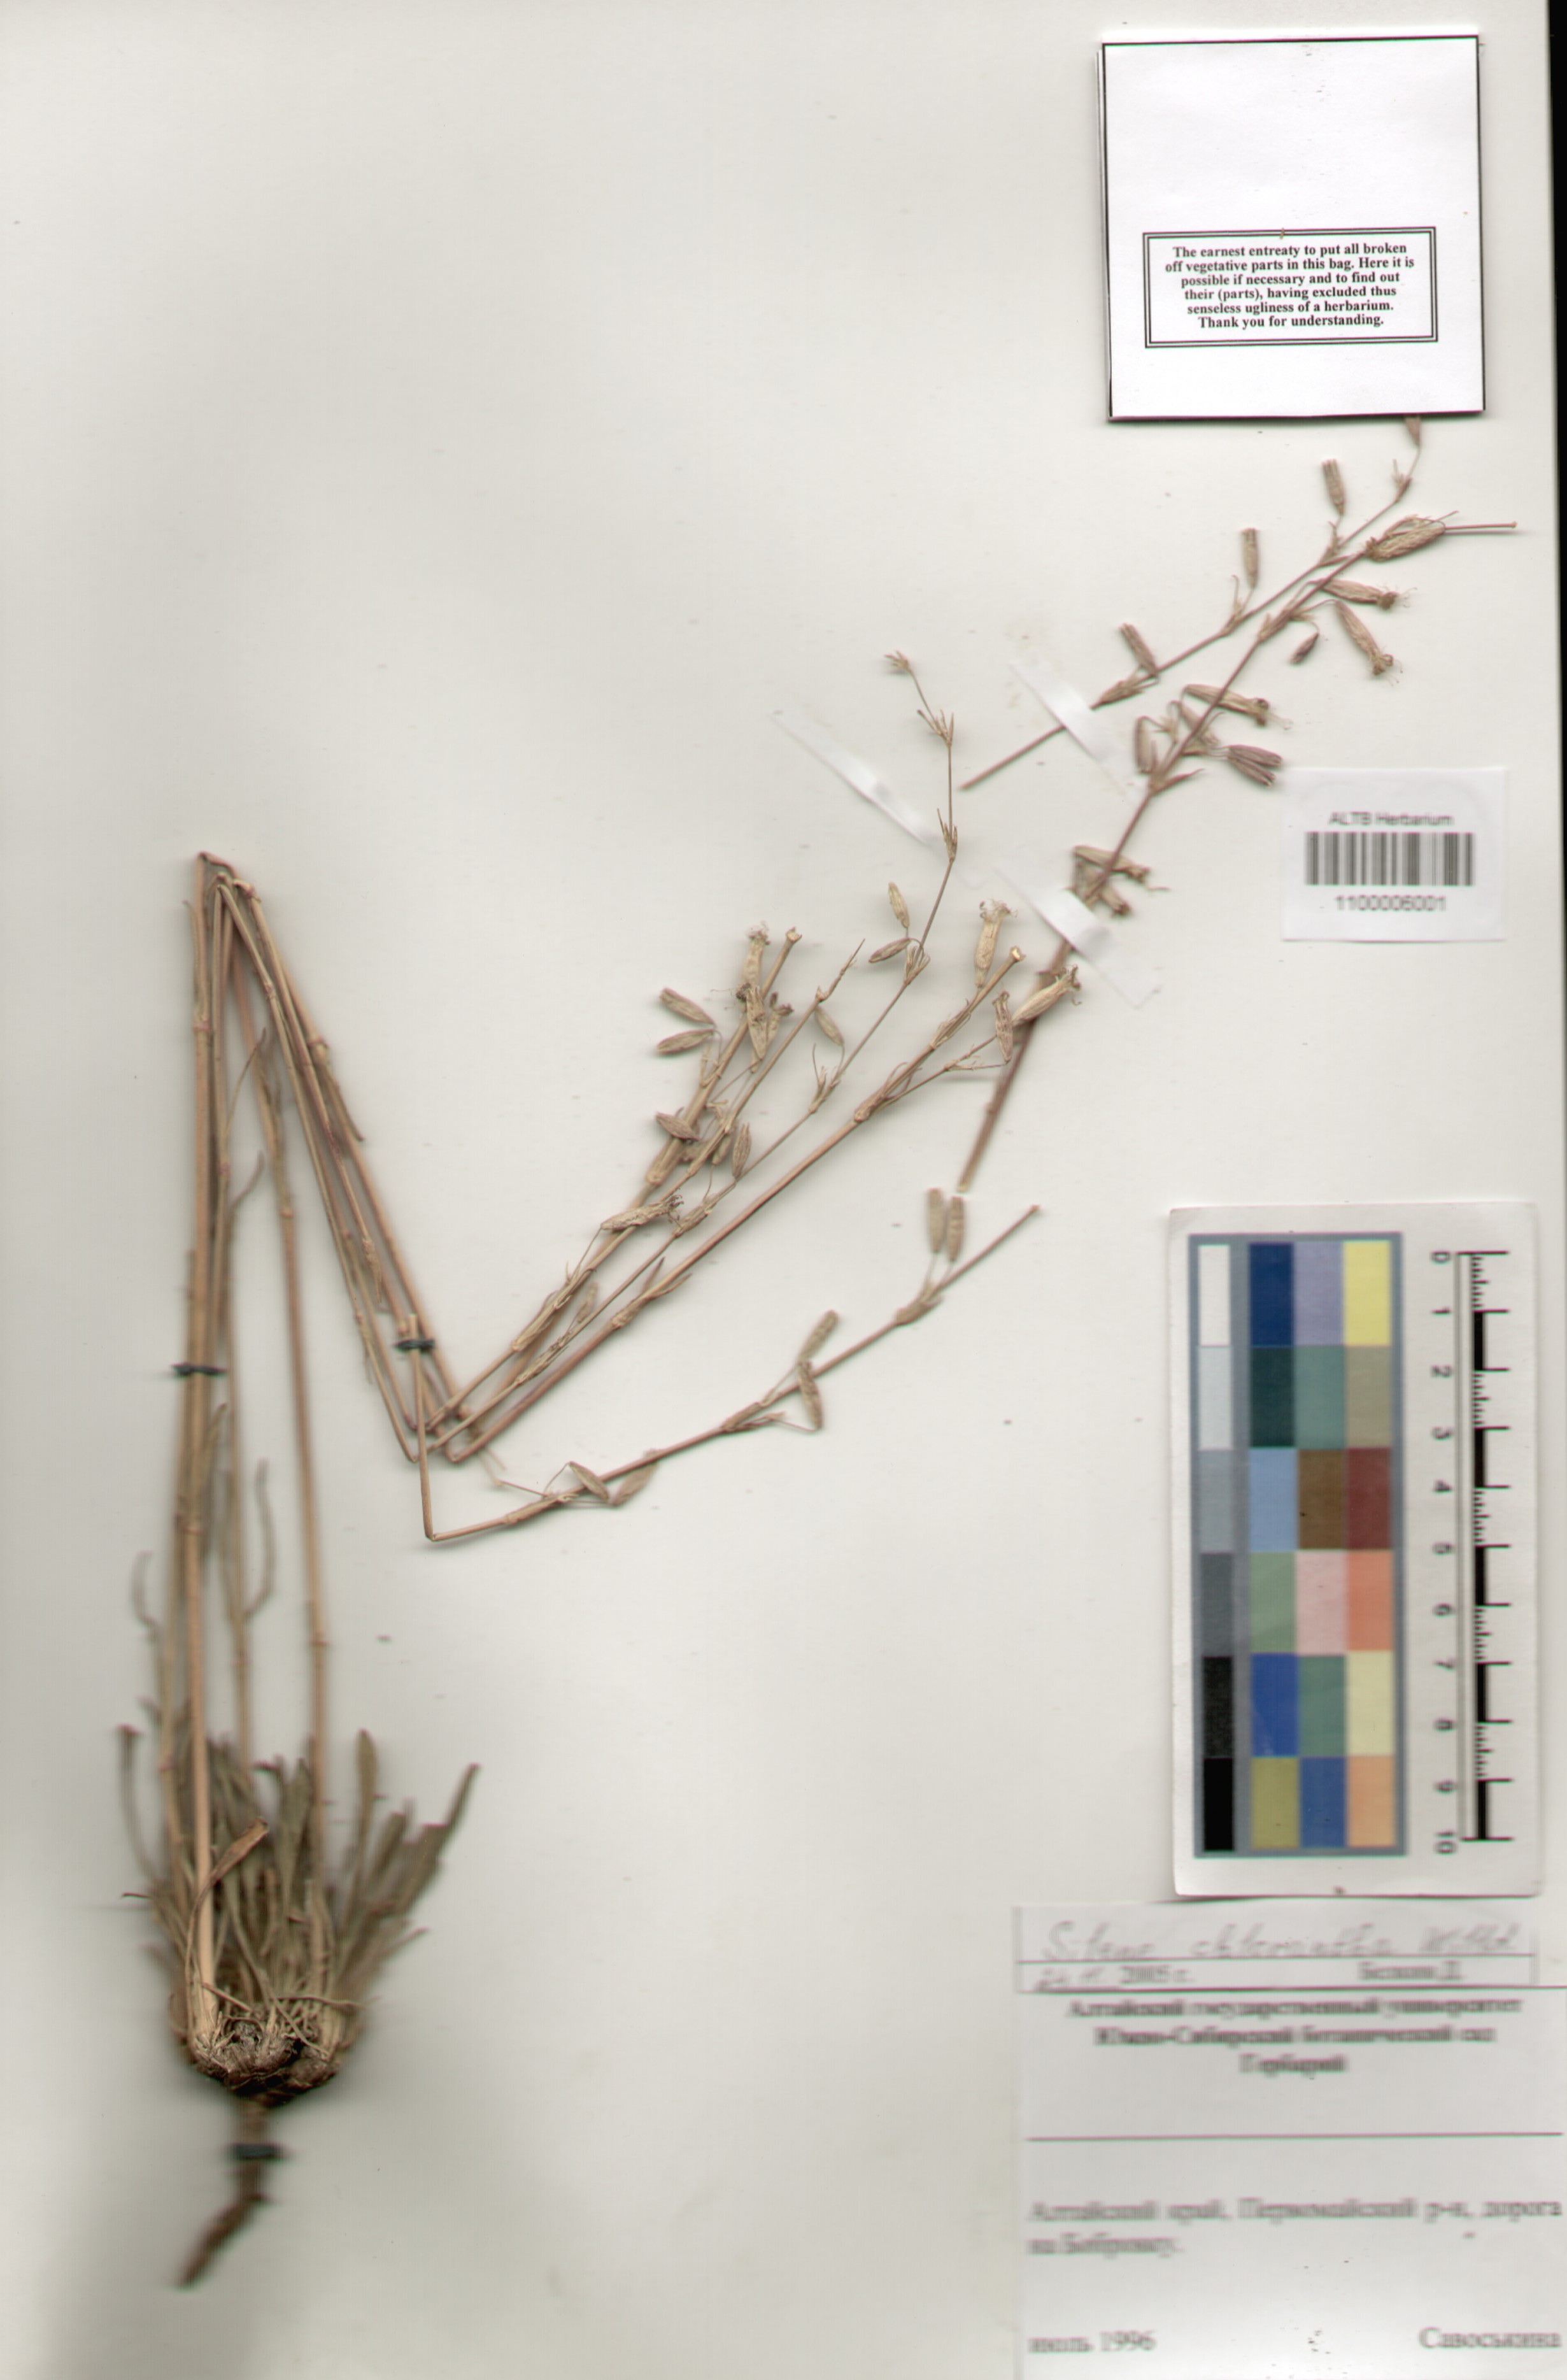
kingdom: Plantae
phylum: Tracheophyta
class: Magnoliopsida
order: Caryophyllales
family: Caryophyllaceae
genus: Silene
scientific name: Silene chlorantha
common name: Yellowgreen catchfly
